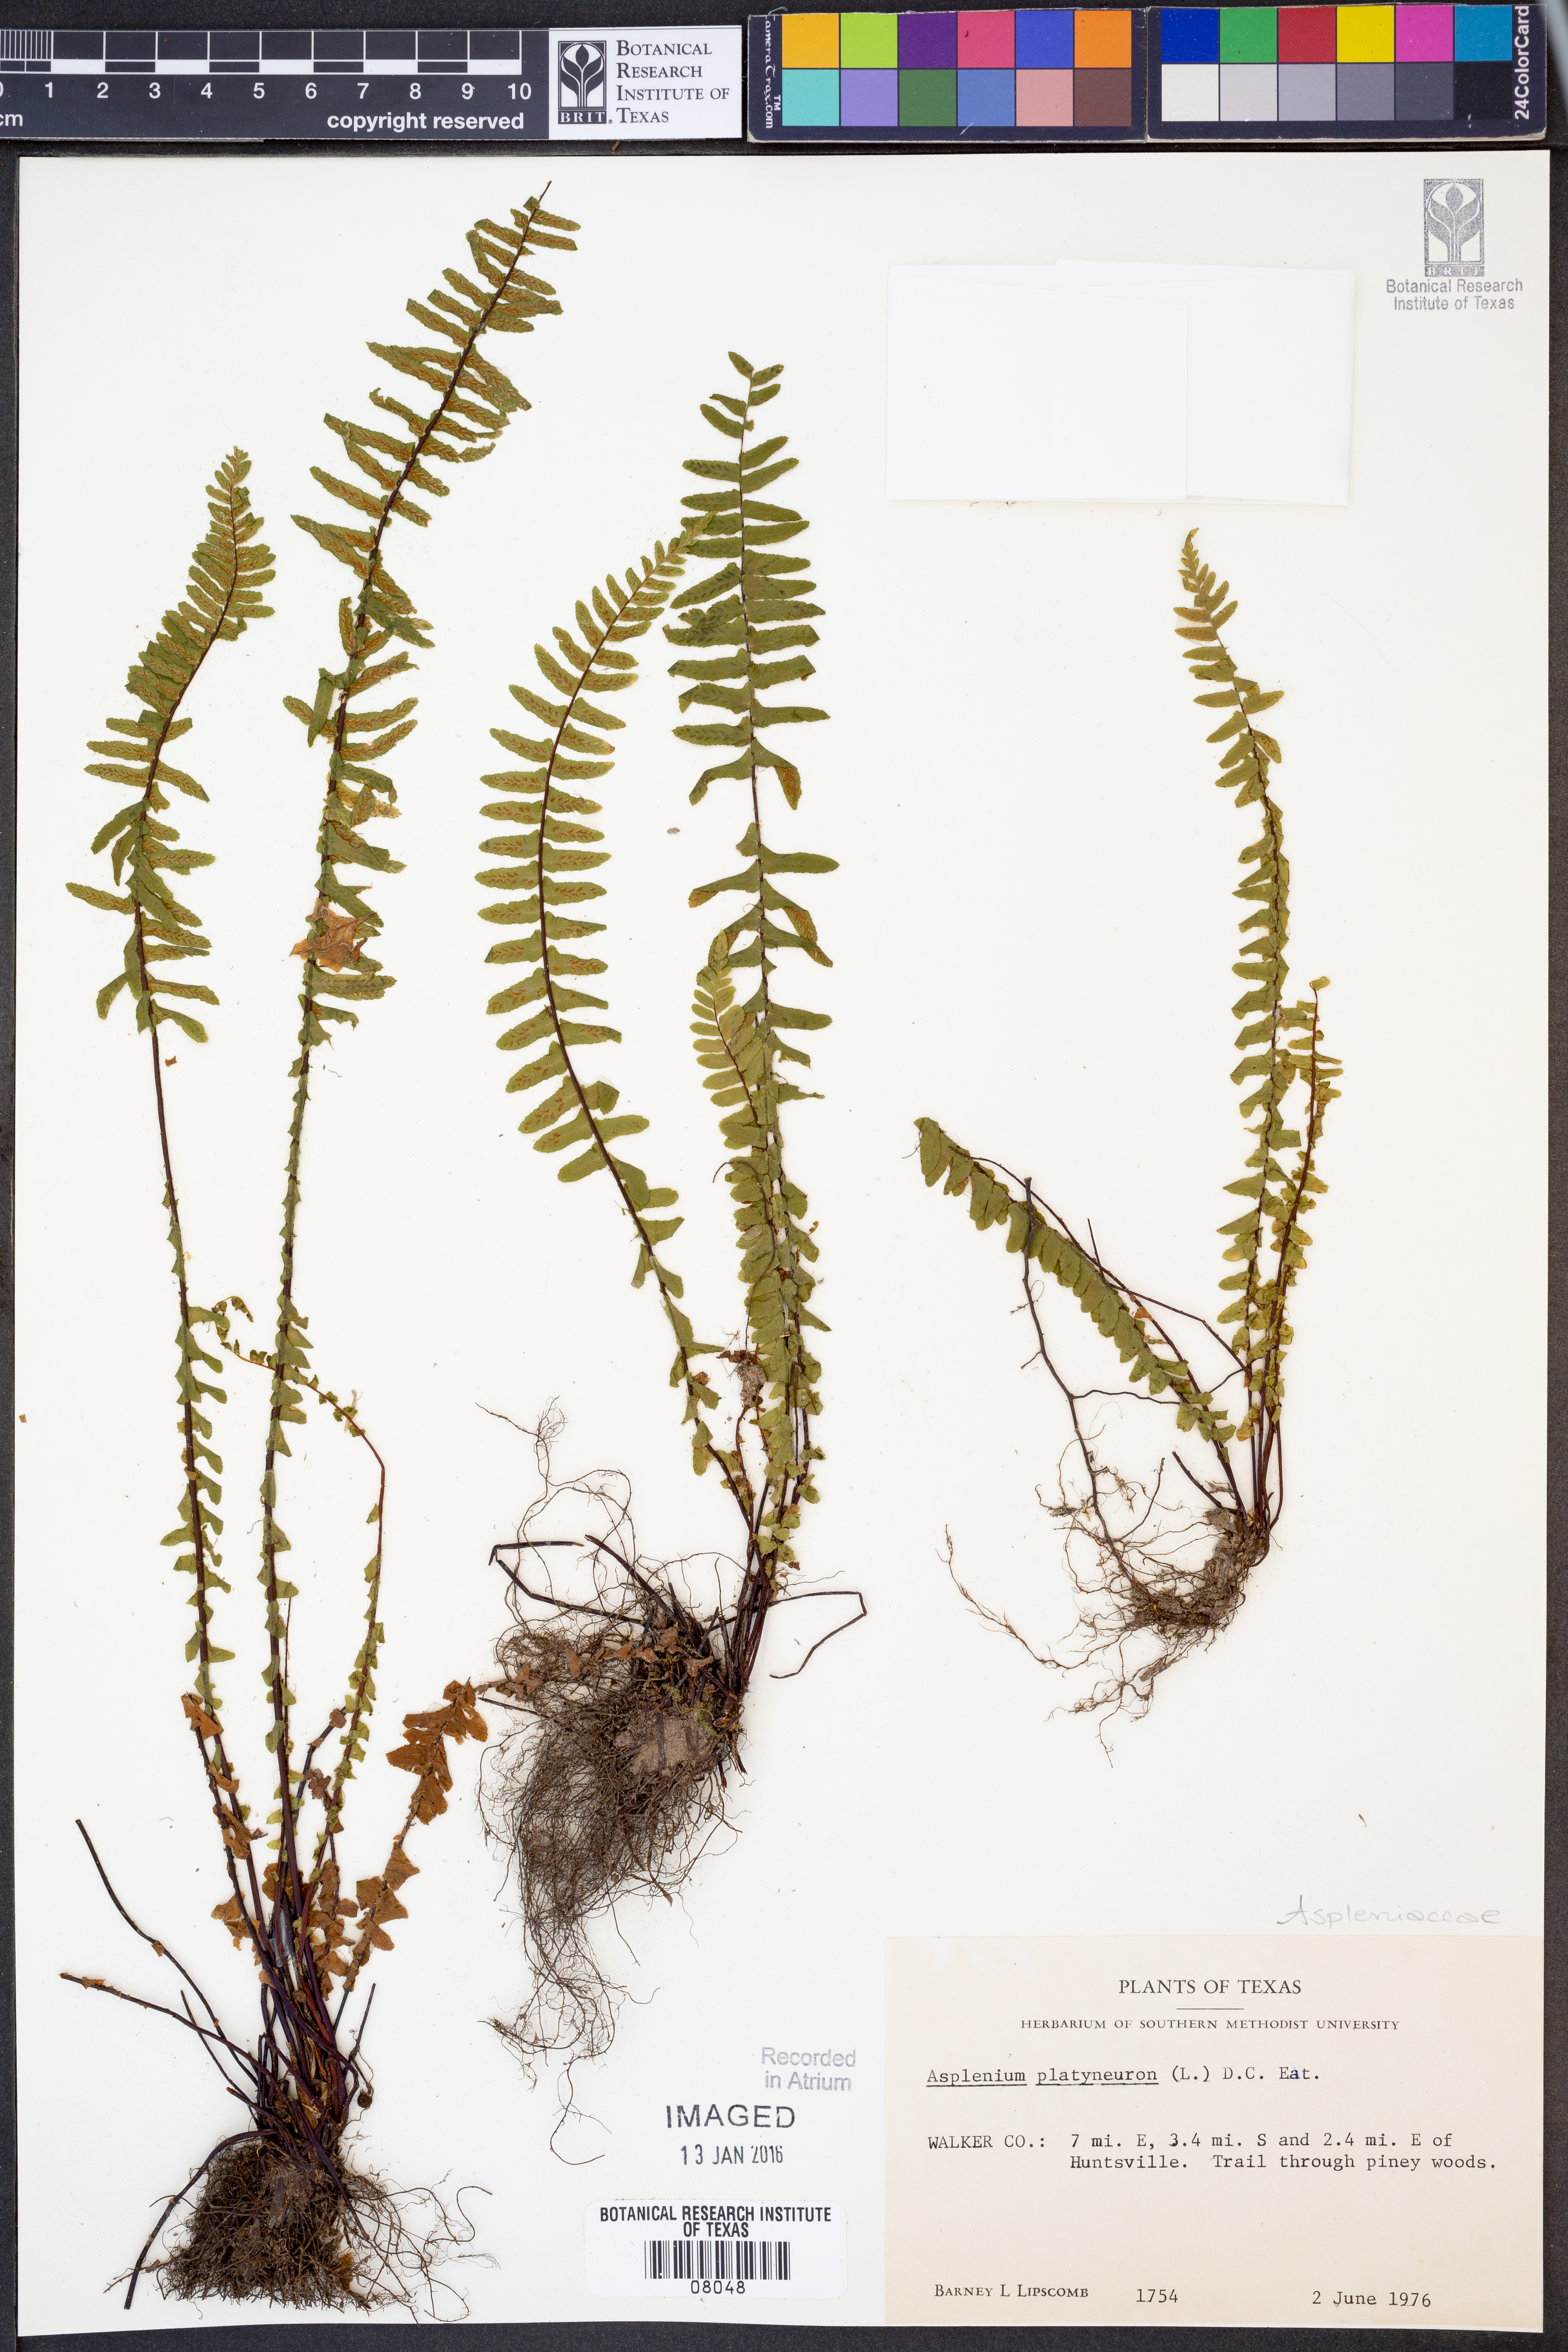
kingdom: Plantae
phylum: Tracheophyta
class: Polypodiopsida
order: Polypodiales
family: Aspleniaceae
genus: Asplenium
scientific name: Asplenium platyneuron
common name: Ebony spleenwort
